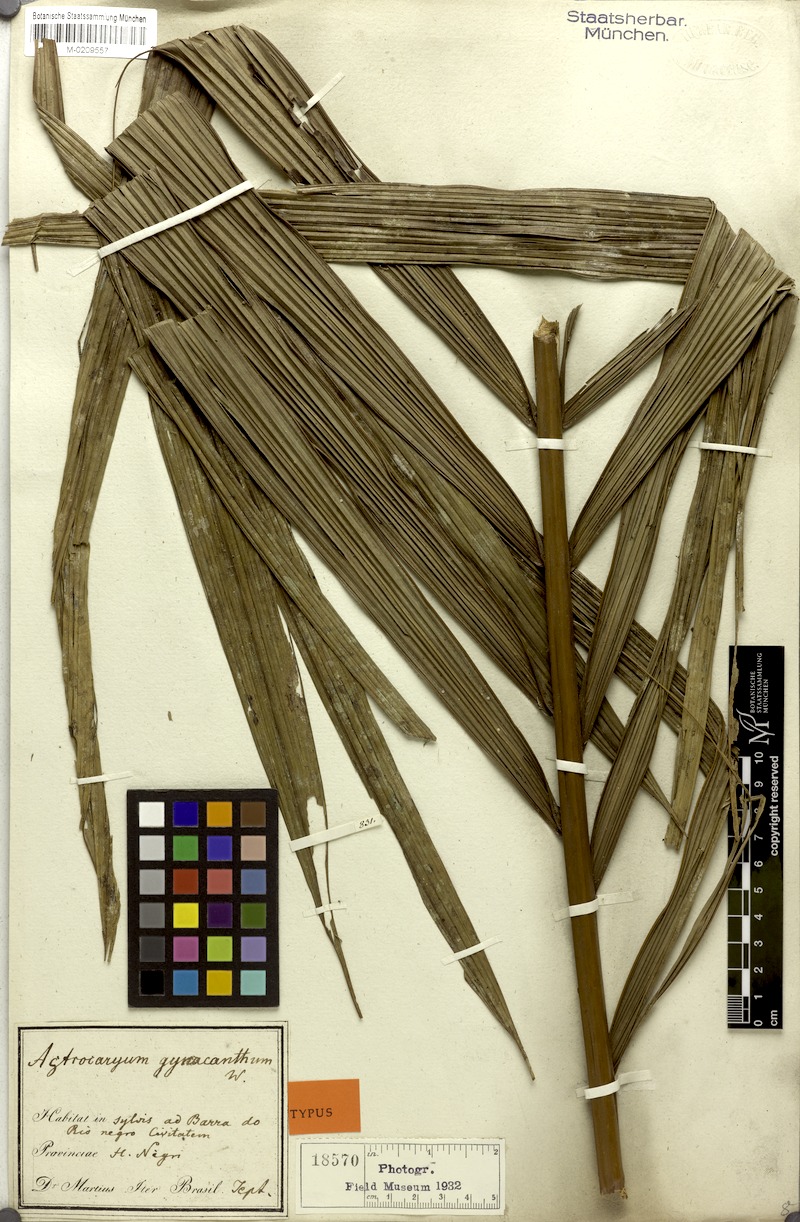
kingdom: Plantae
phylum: Tracheophyta
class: Liliopsida
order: Arecales
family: Arecaceae
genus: Astrocaryum
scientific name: Astrocaryum aculeatum
